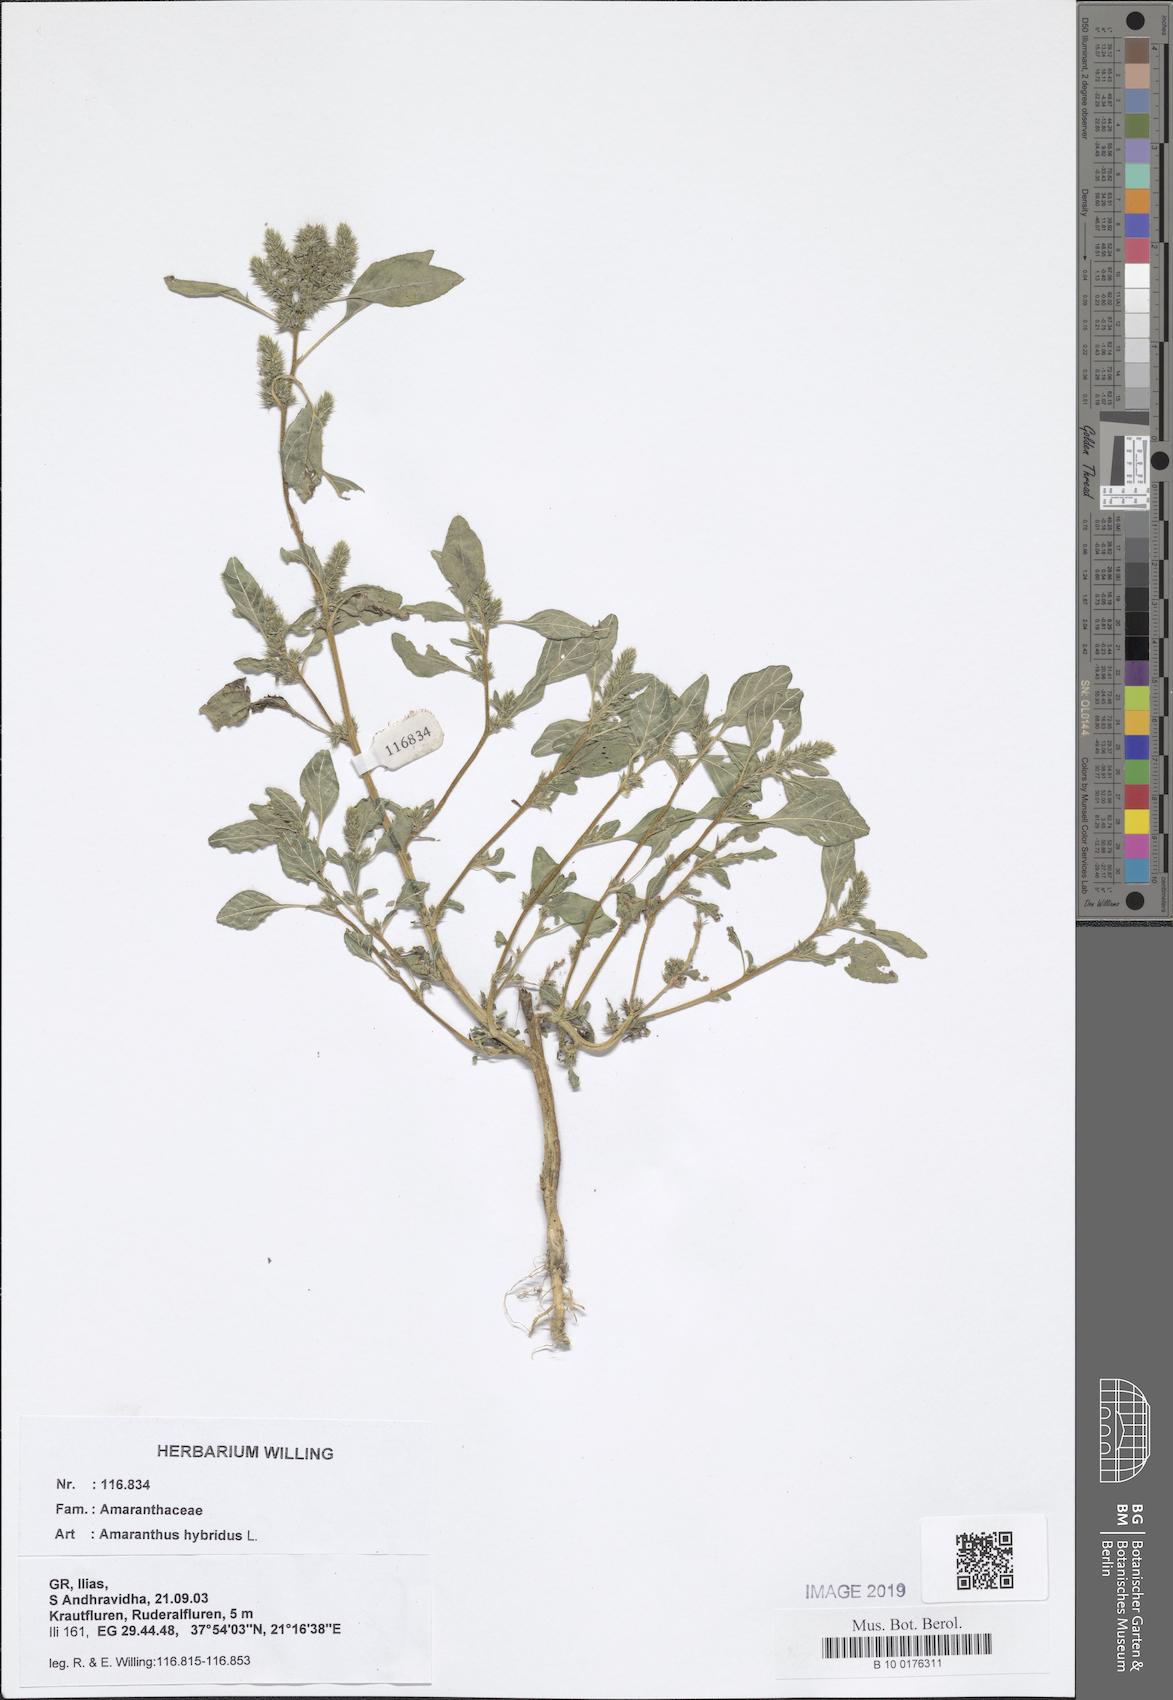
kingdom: Plantae
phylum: Tracheophyta
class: Magnoliopsida
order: Caryophyllales
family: Amaranthaceae
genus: Amaranthus
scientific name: Amaranthus hybridus
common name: Green amaranth
